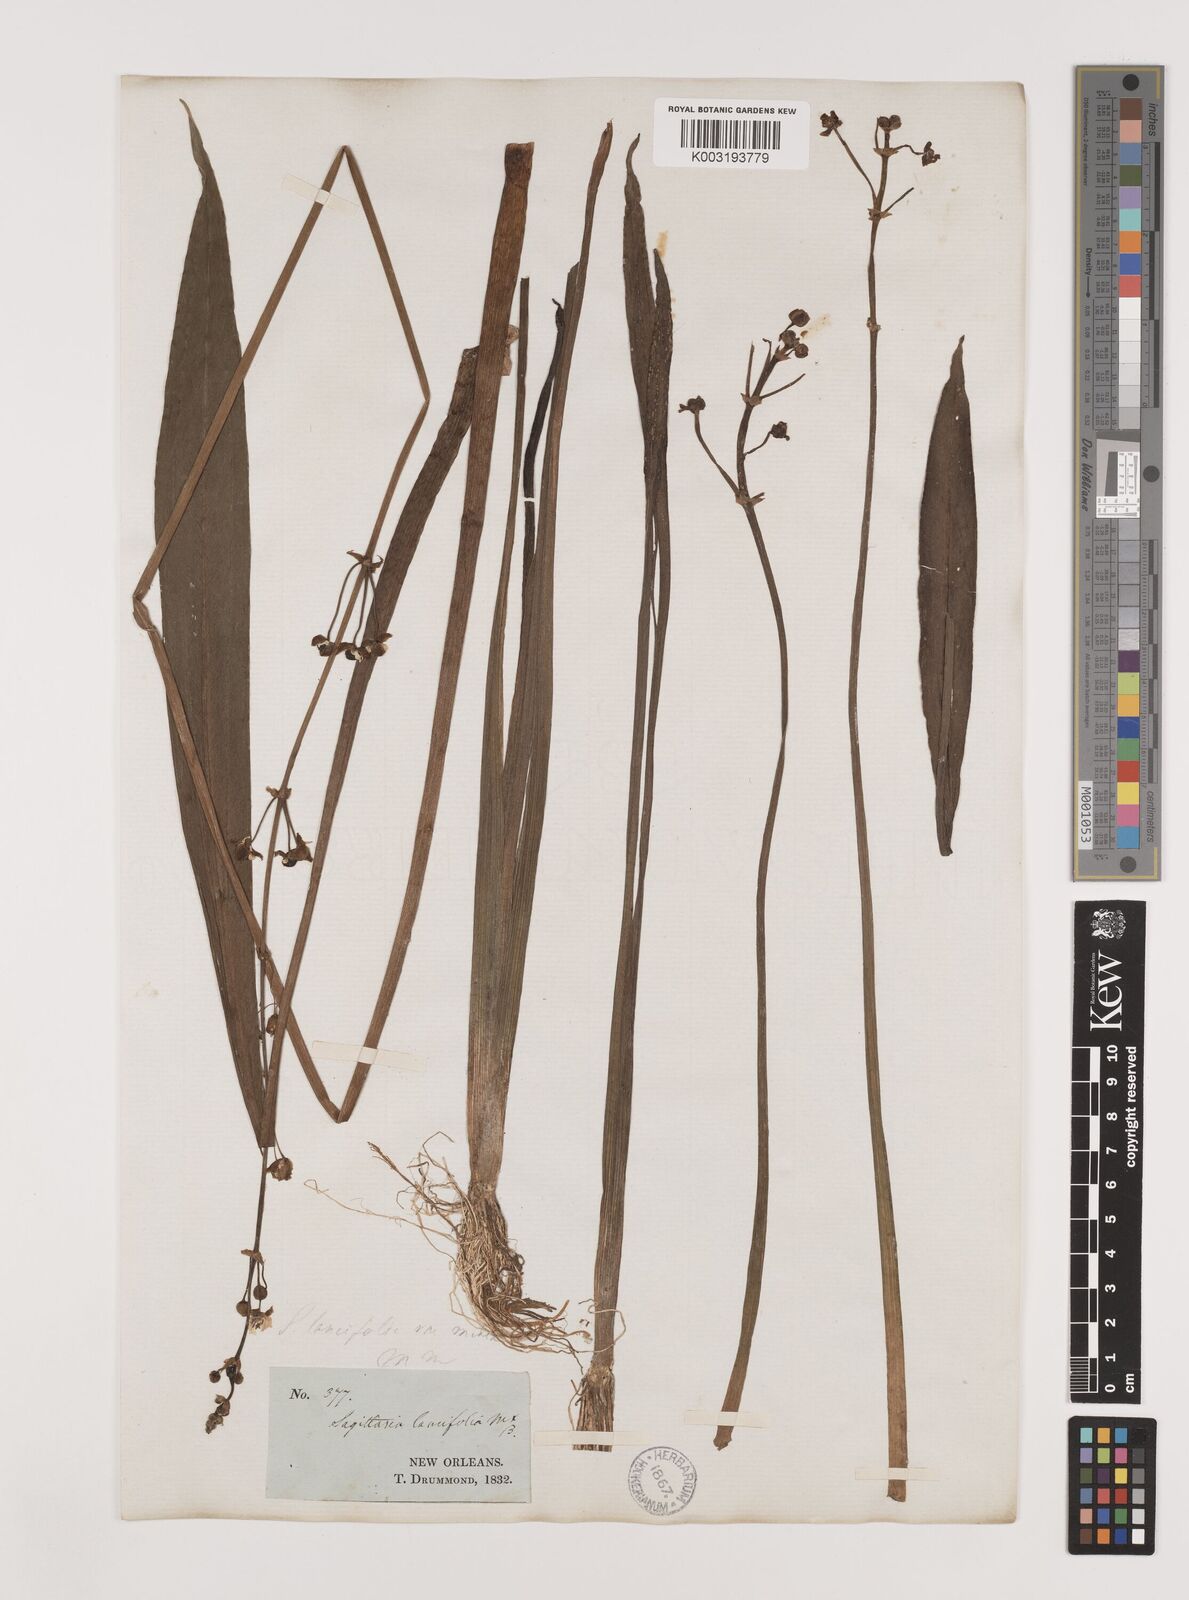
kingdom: Plantae
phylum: Tracheophyta
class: Liliopsida
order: Alismatales
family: Alismataceae
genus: Sagittaria
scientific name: Sagittaria lancifolia
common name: Lance-leaf arrowhead
